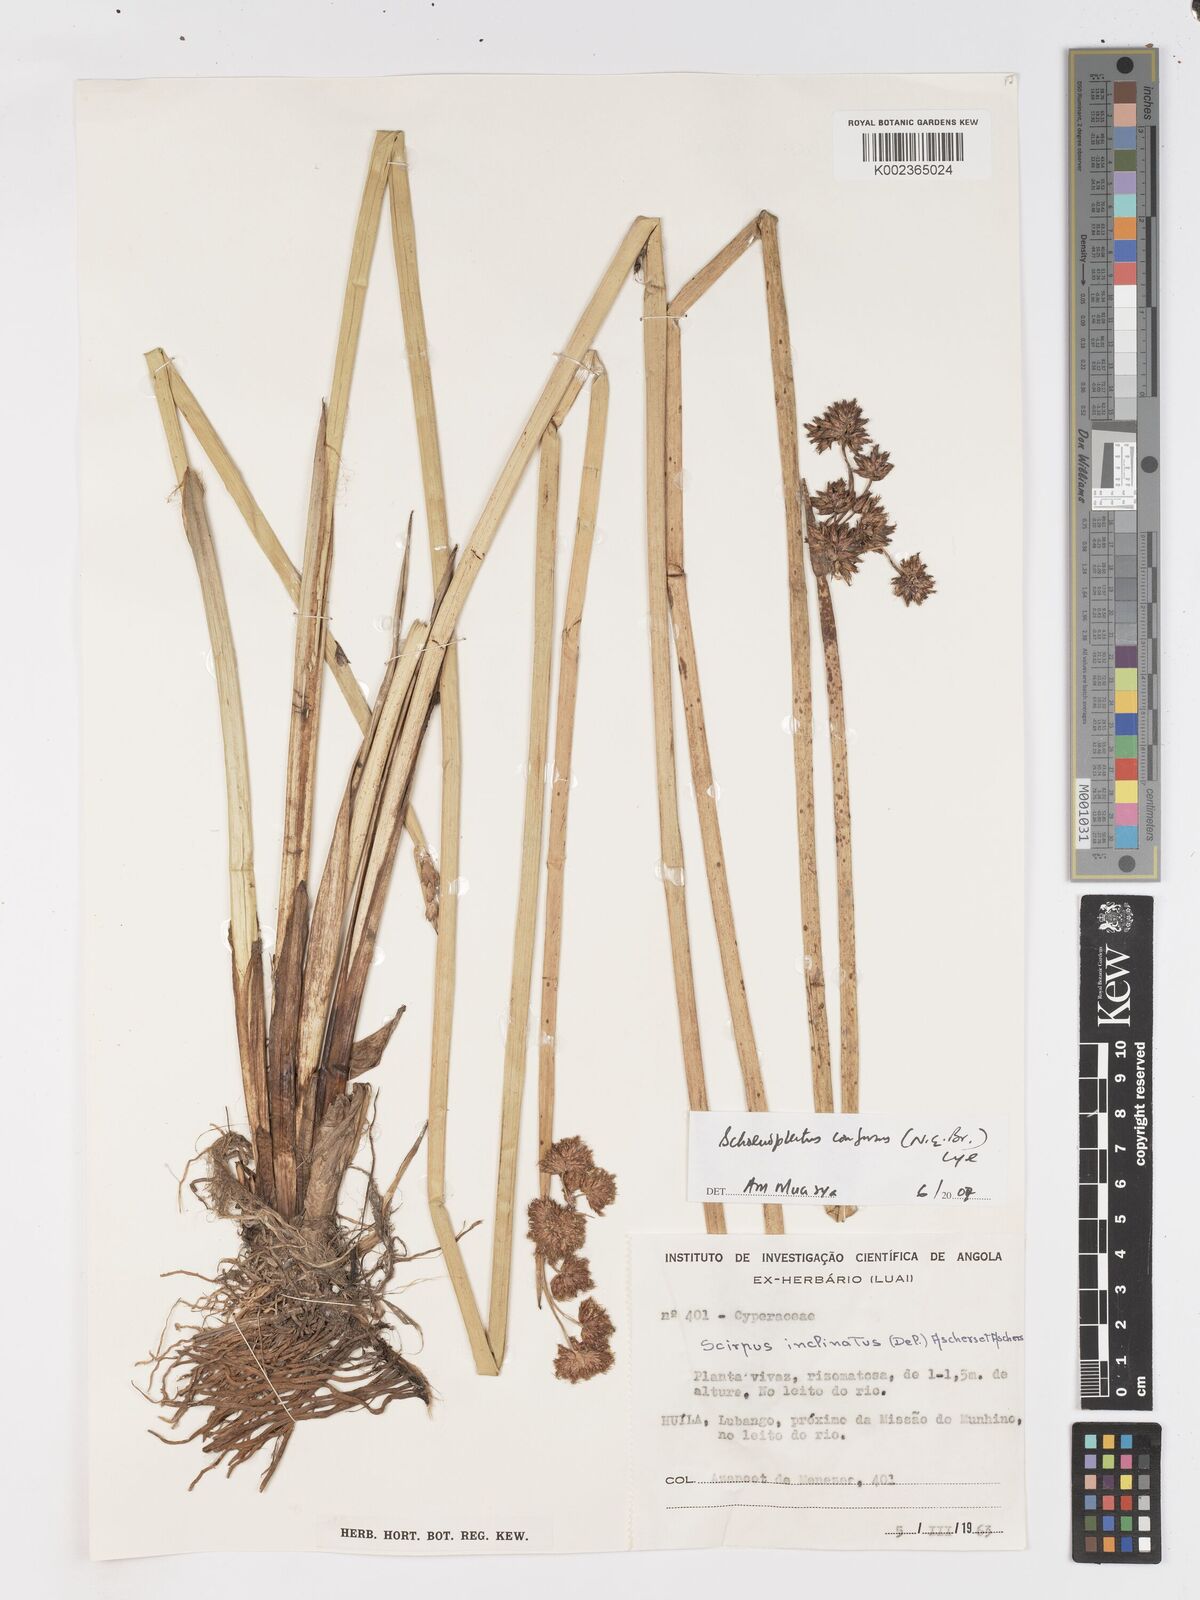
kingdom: Plantae
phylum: Tracheophyta
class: Liliopsida
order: Poales
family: Cyperaceae
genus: Schoenoplectiella
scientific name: Schoenoplectiella confusa
